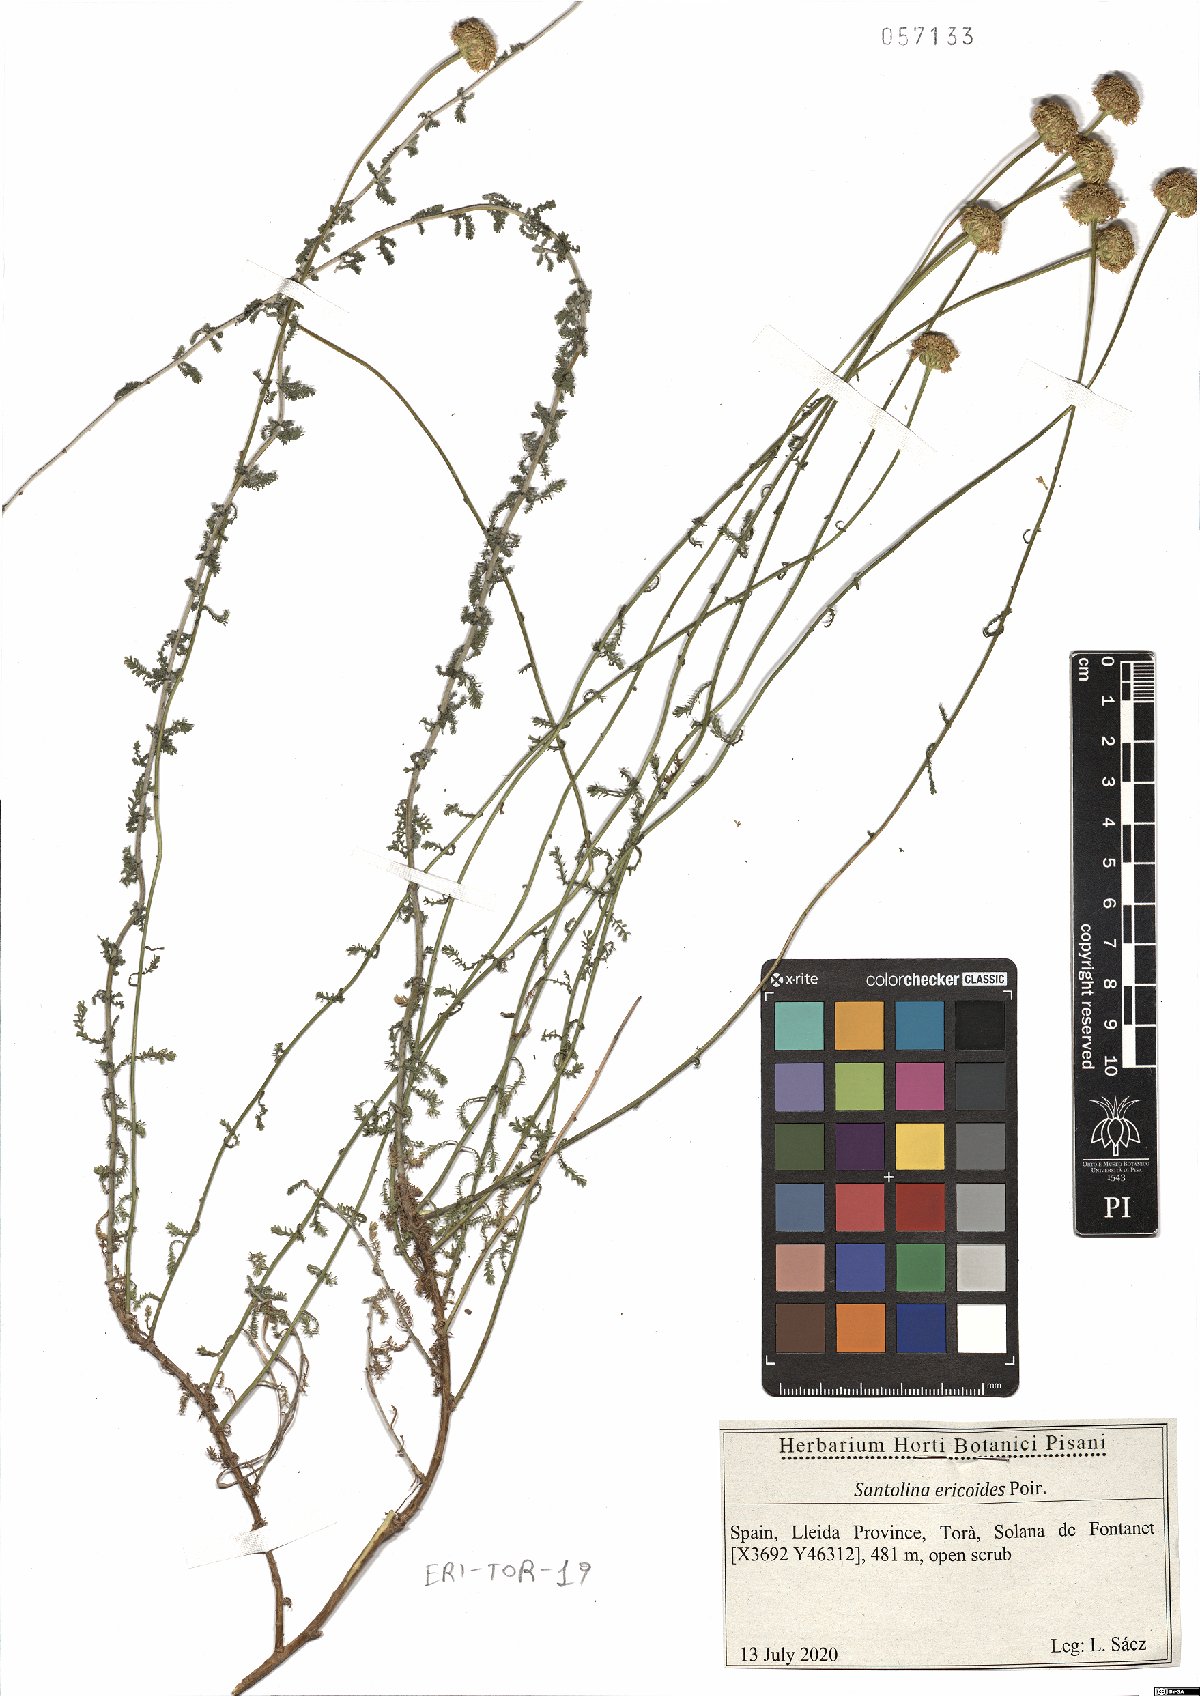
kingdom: Plantae
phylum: Tracheophyta
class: Magnoliopsida
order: Asterales
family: Asteraceae
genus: Santolina
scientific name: Santolina ericoides
